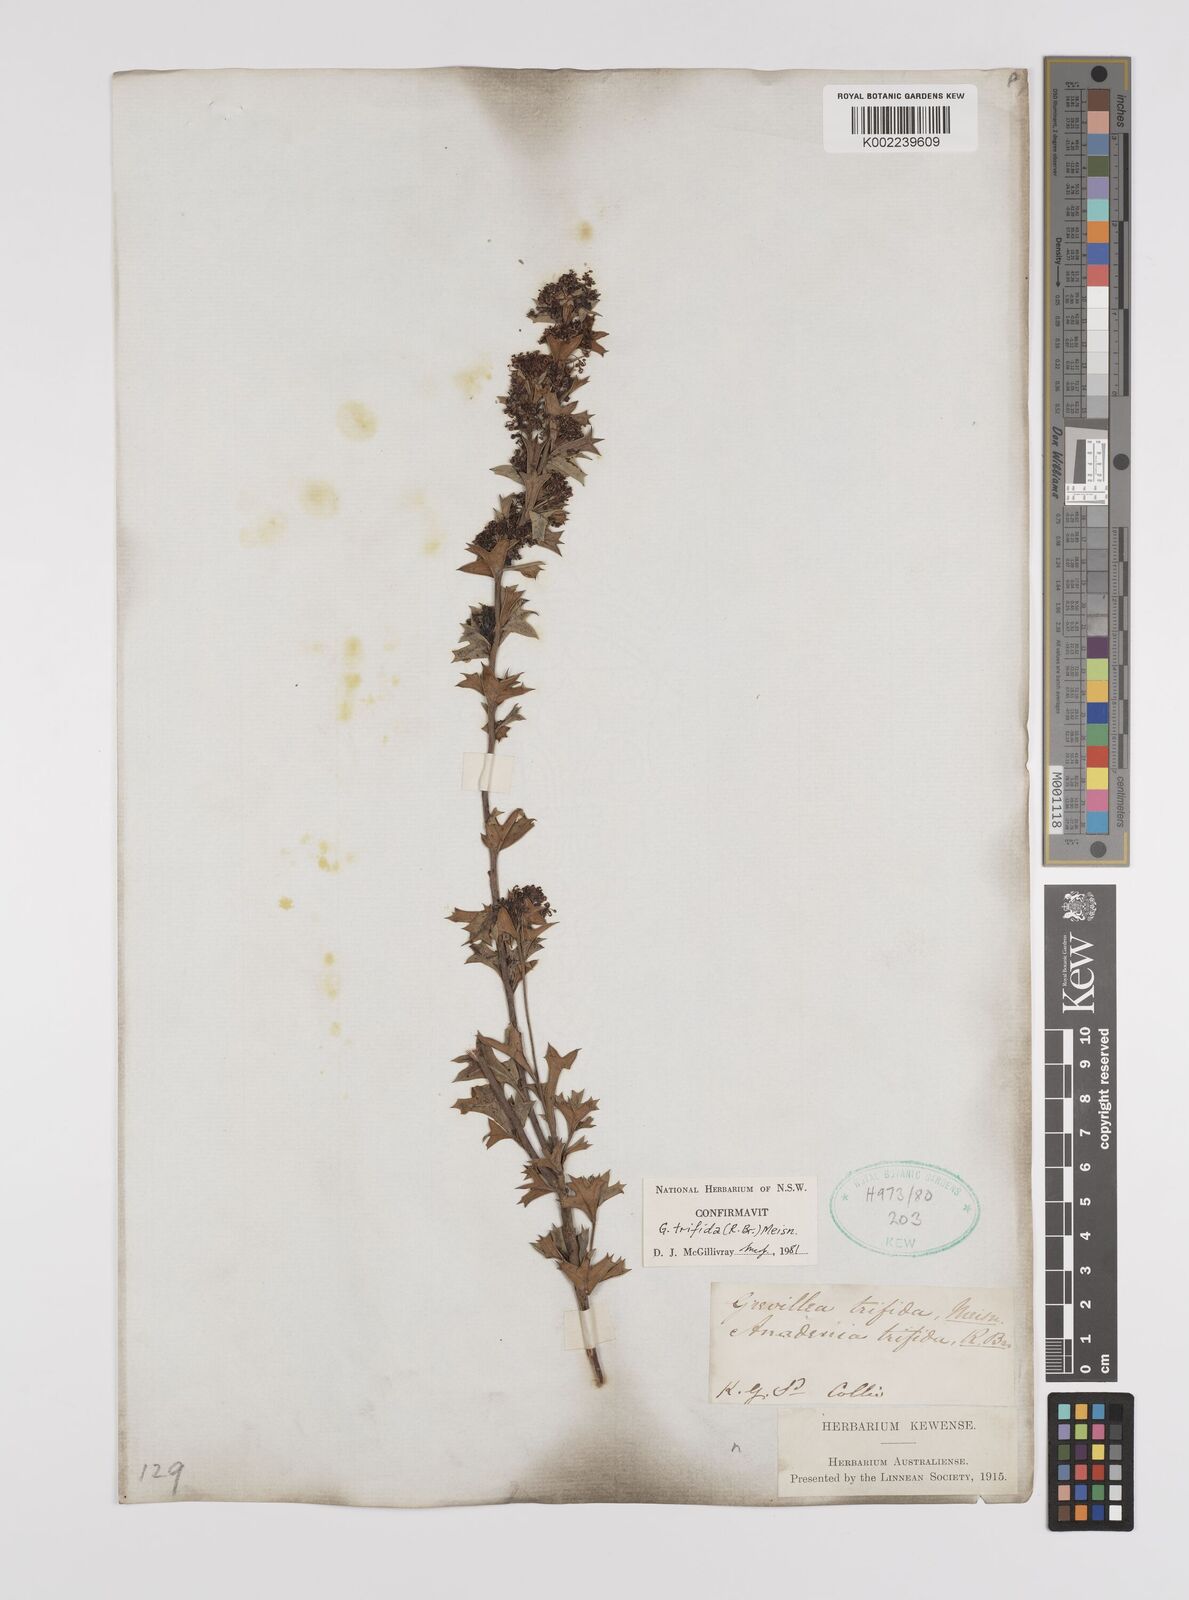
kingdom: Plantae
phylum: Tracheophyta
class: Magnoliopsida
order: Proteales
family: Proteaceae
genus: Grevillea
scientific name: Grevillea trifida
